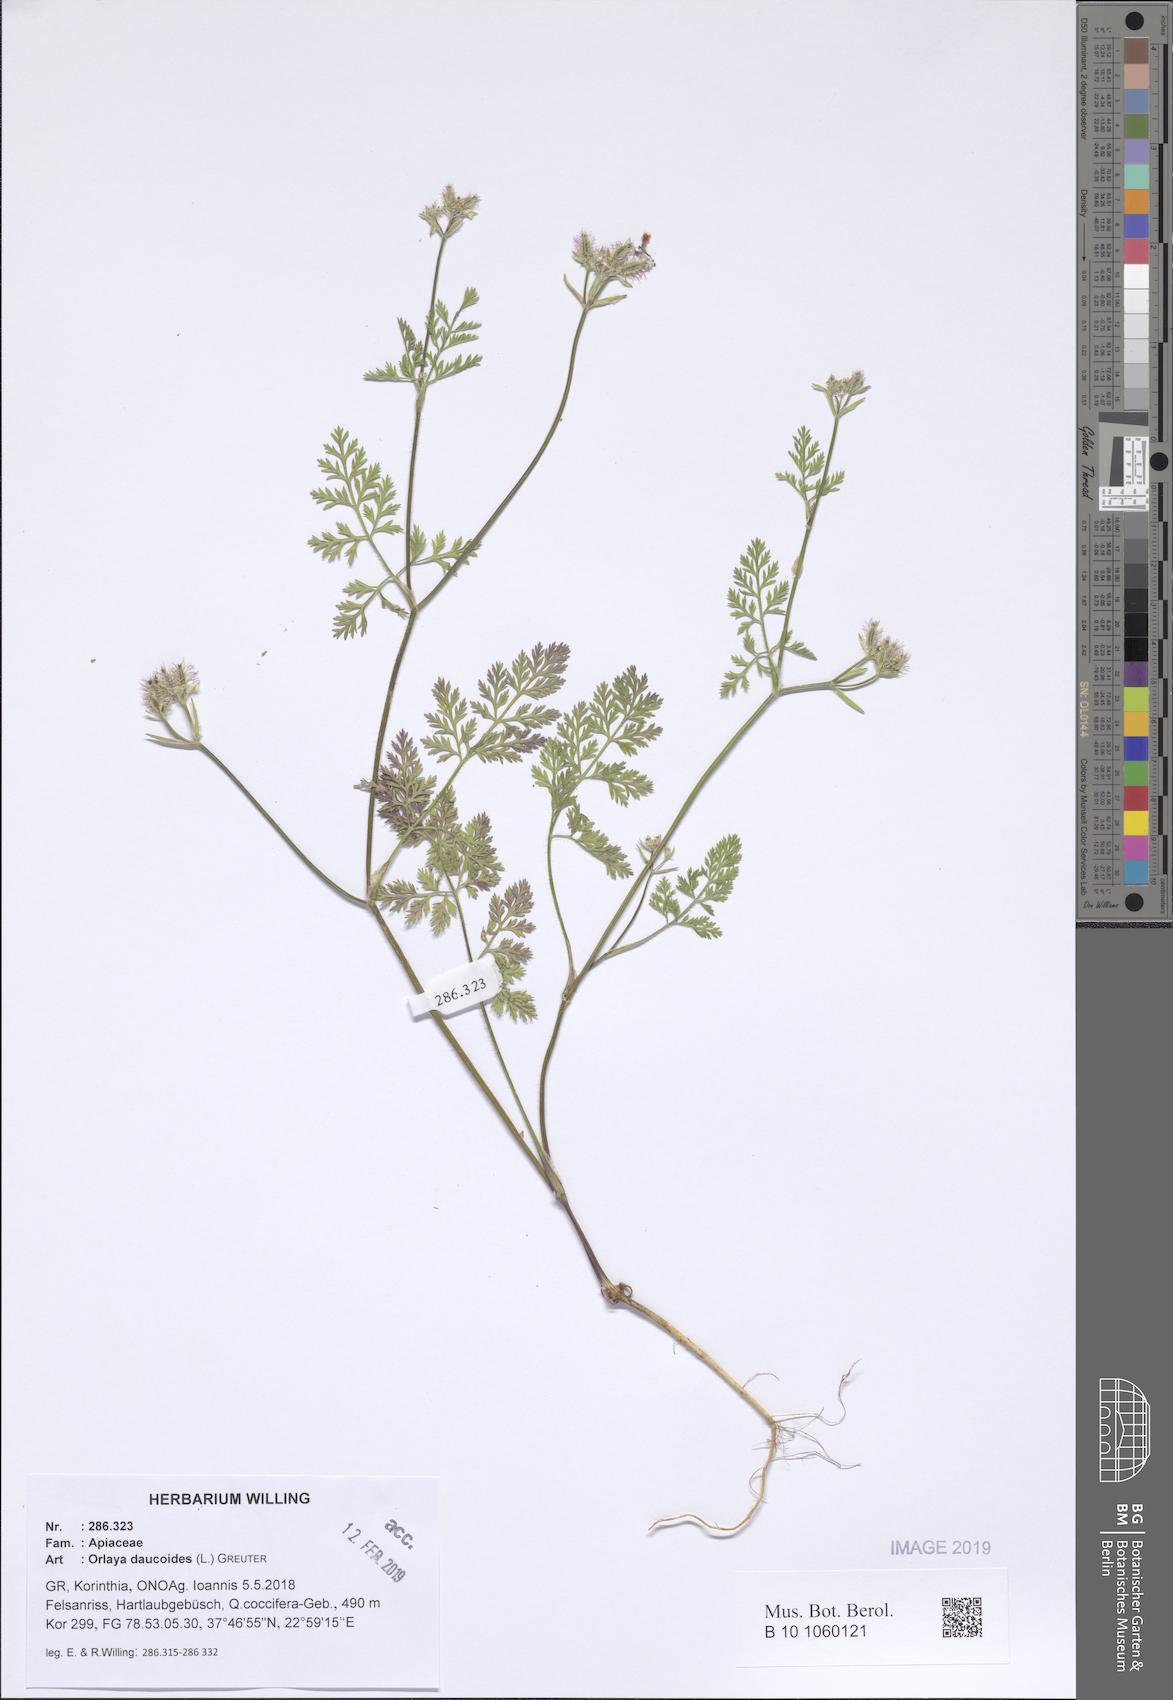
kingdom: Plantae
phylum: Tracheophyta
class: Magnoliopsida
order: Apiales
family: Apiaceae
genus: Orlaya
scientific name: Orlaya daucoides
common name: Flat-fruit orlaya
